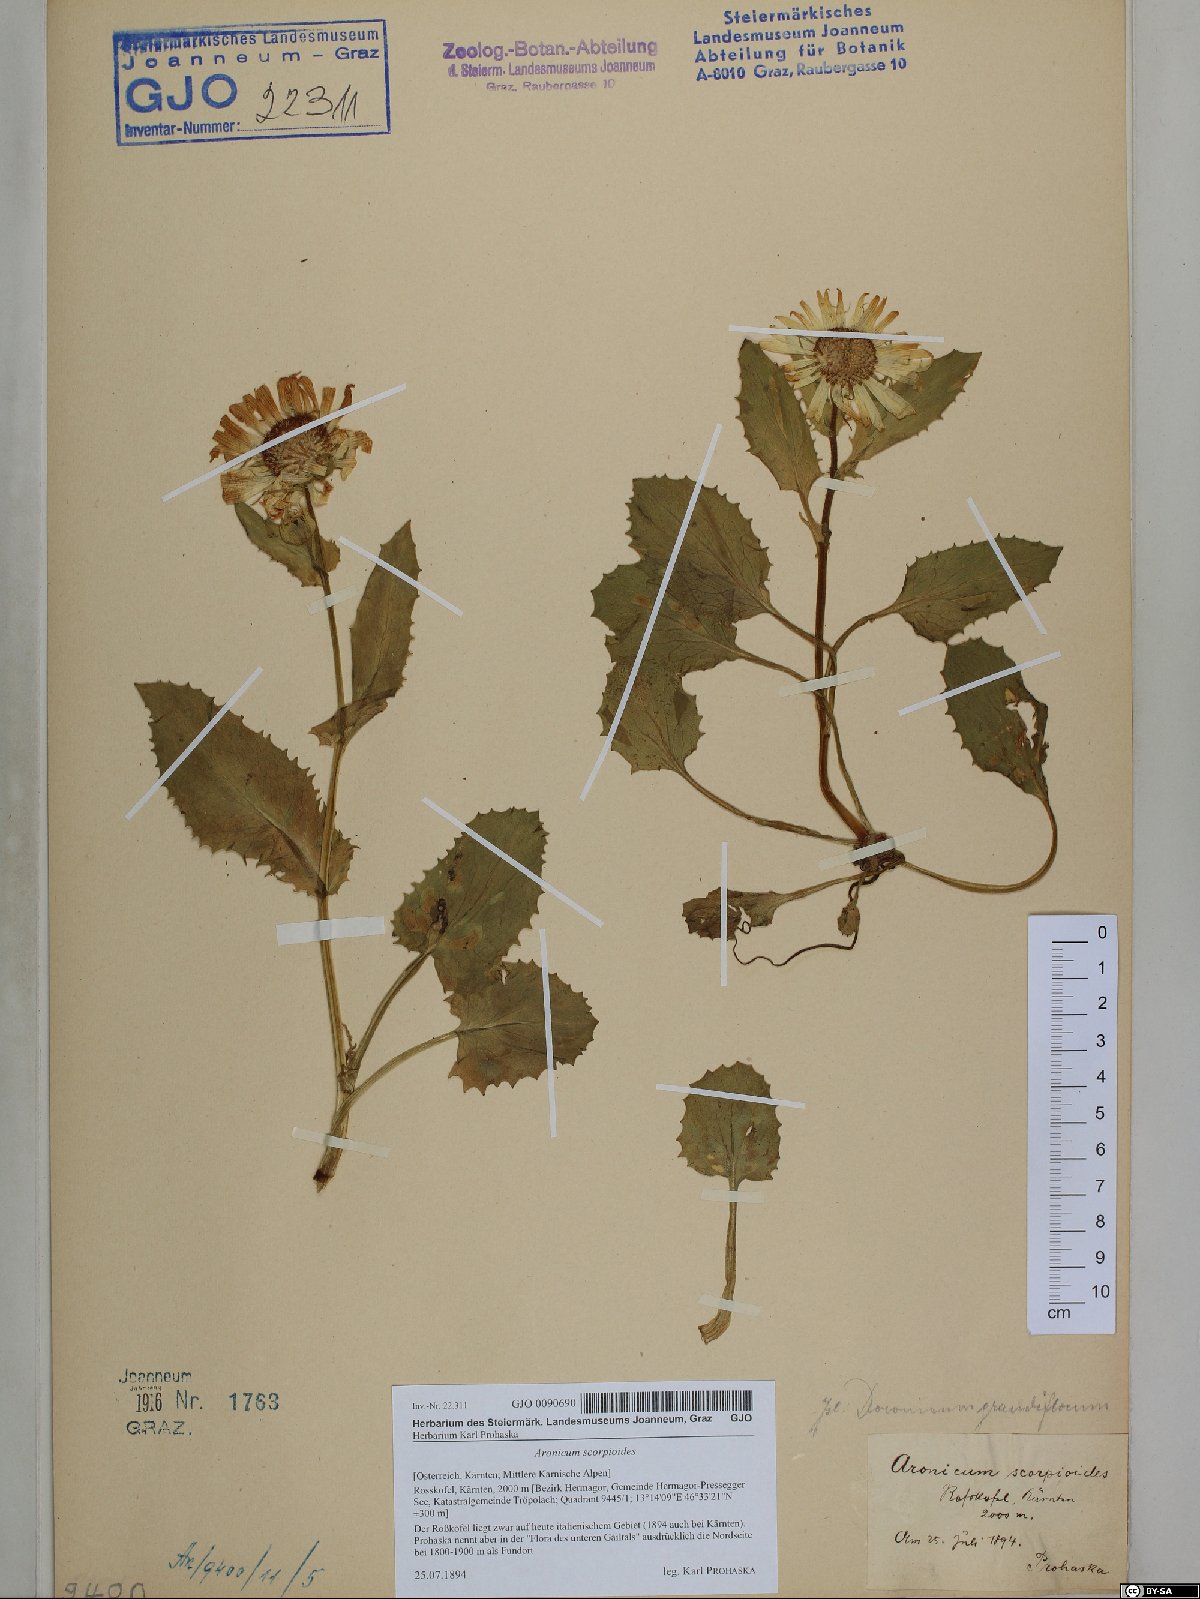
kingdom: Plantae
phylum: Tracheophyta
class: Magnoliopsida
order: Asterales
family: Asteraceae
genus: Doronicum
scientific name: Doronicum grandiflorum
